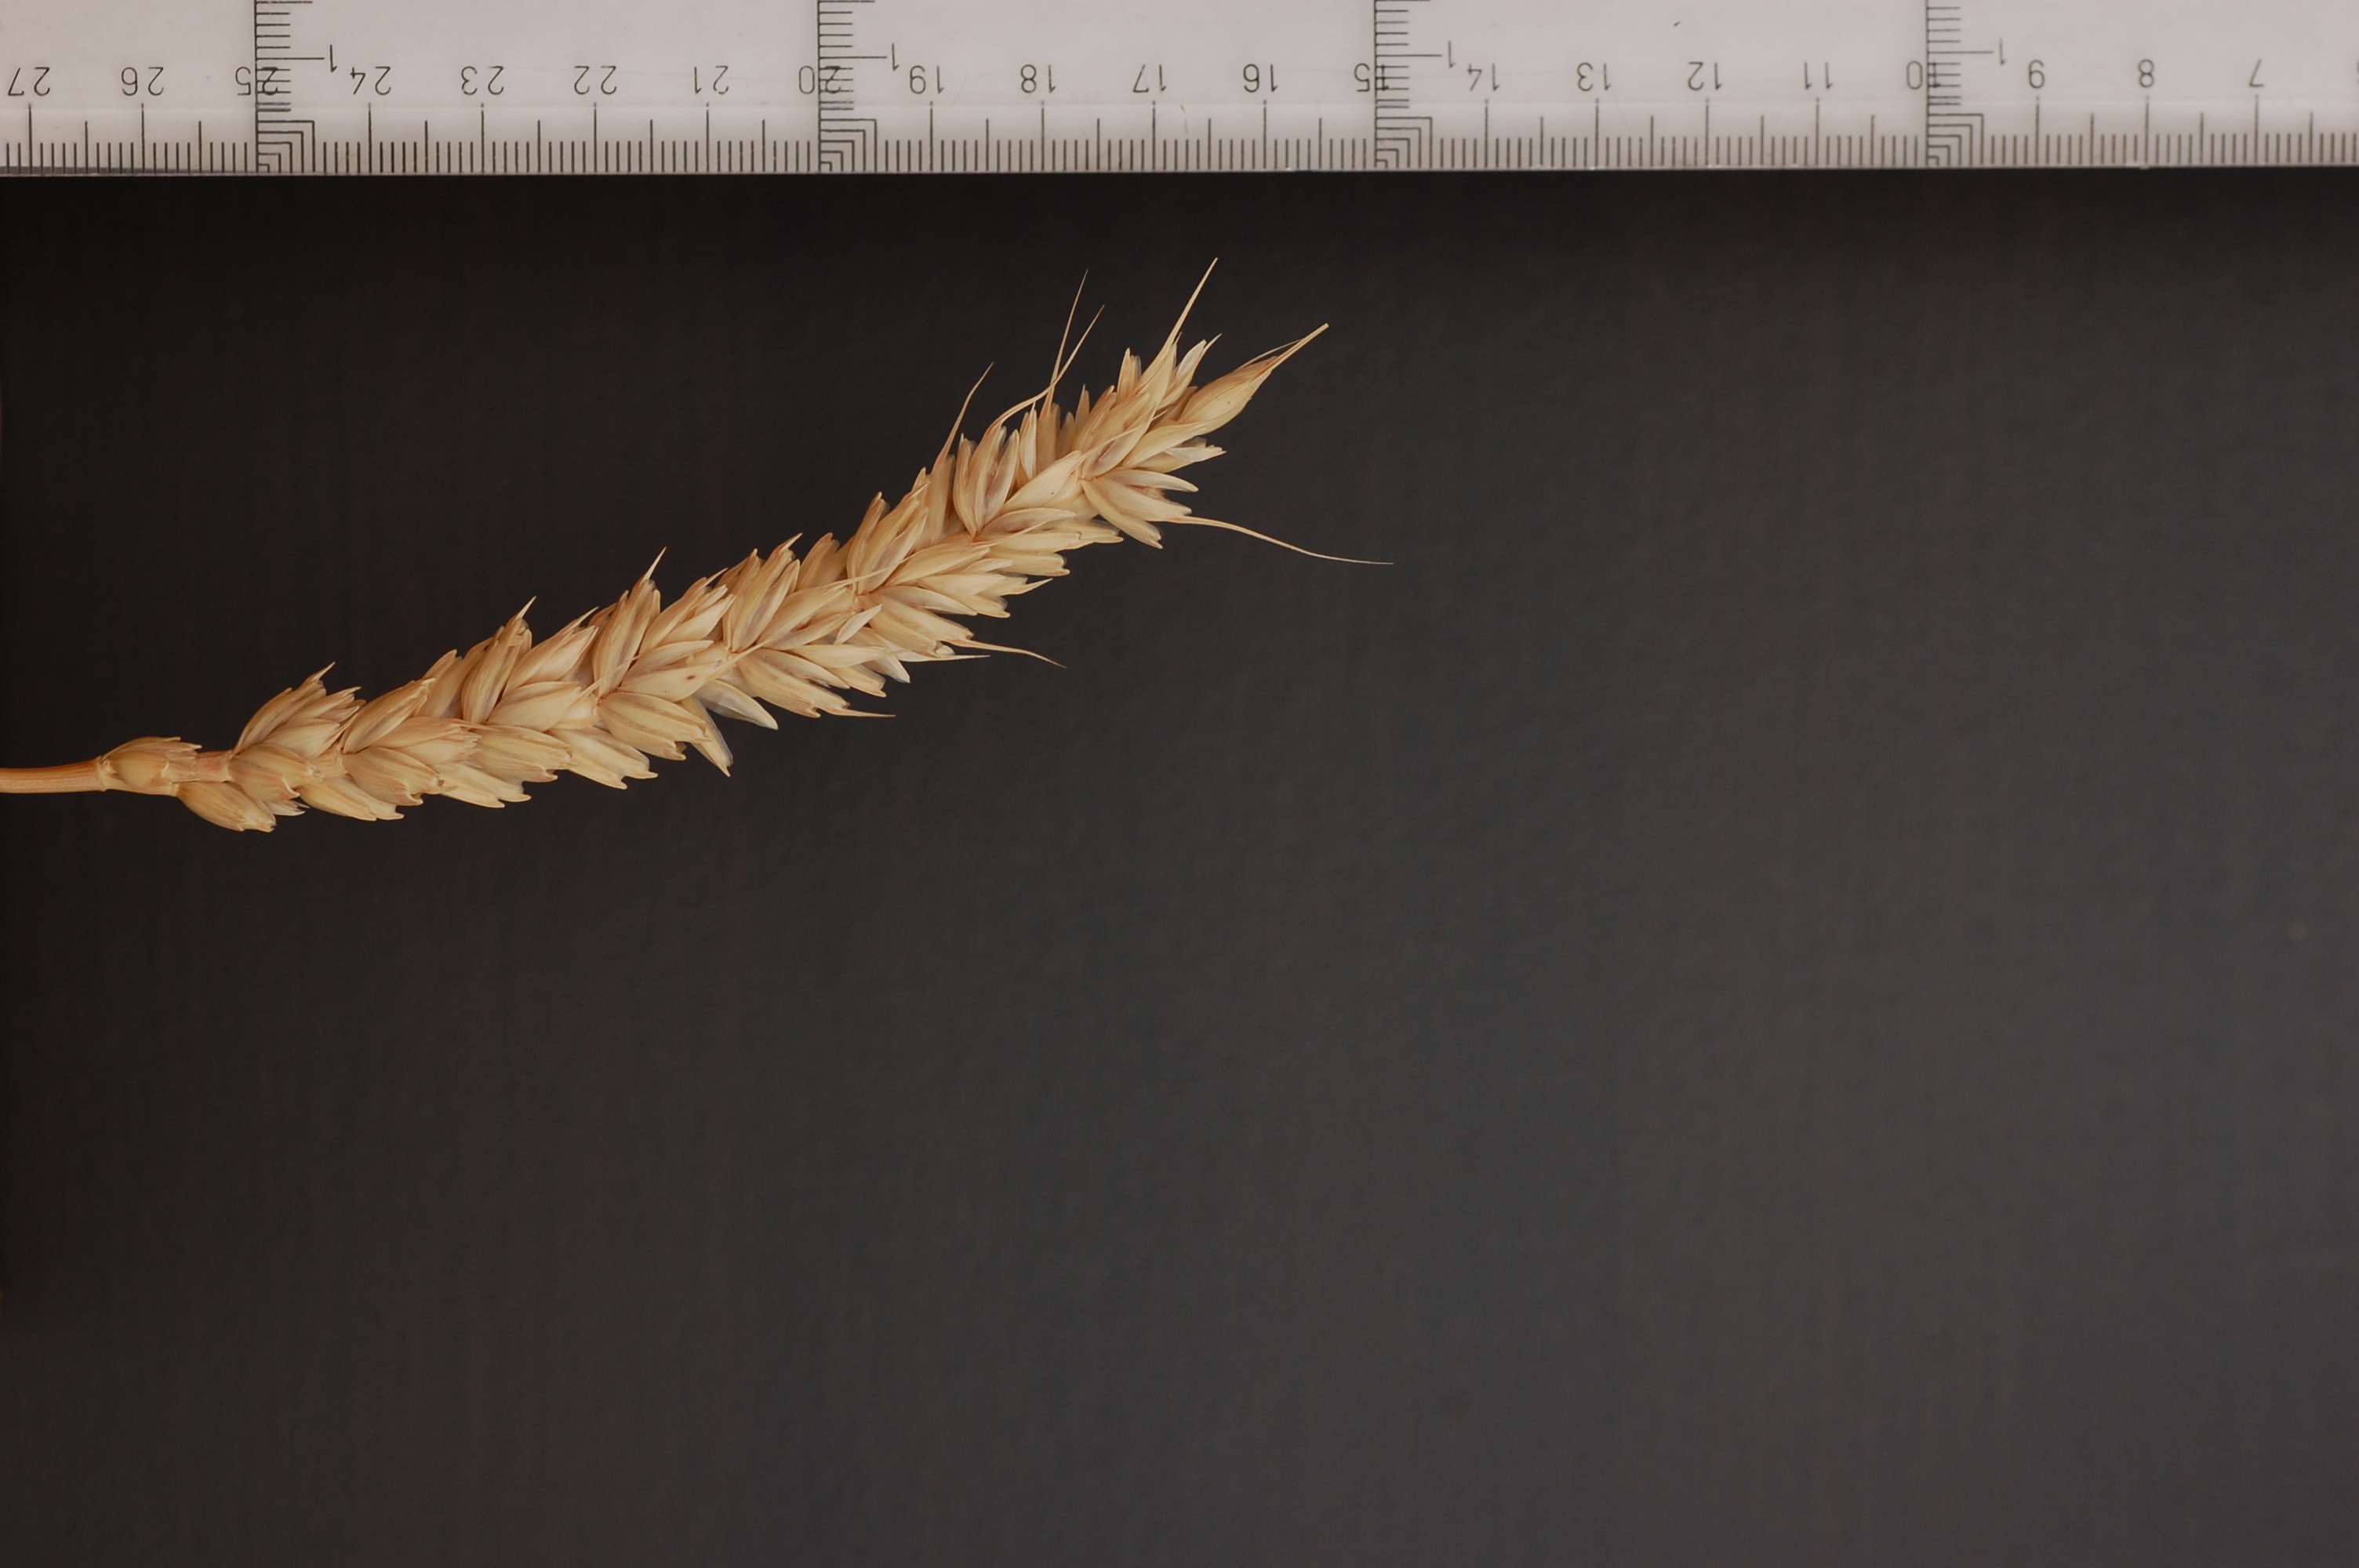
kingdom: Plantae
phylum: Tracheophyta
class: Liliopsida
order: Poales
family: Poaceae
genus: Triticum
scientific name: Triticum aestivum
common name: Common wheat
